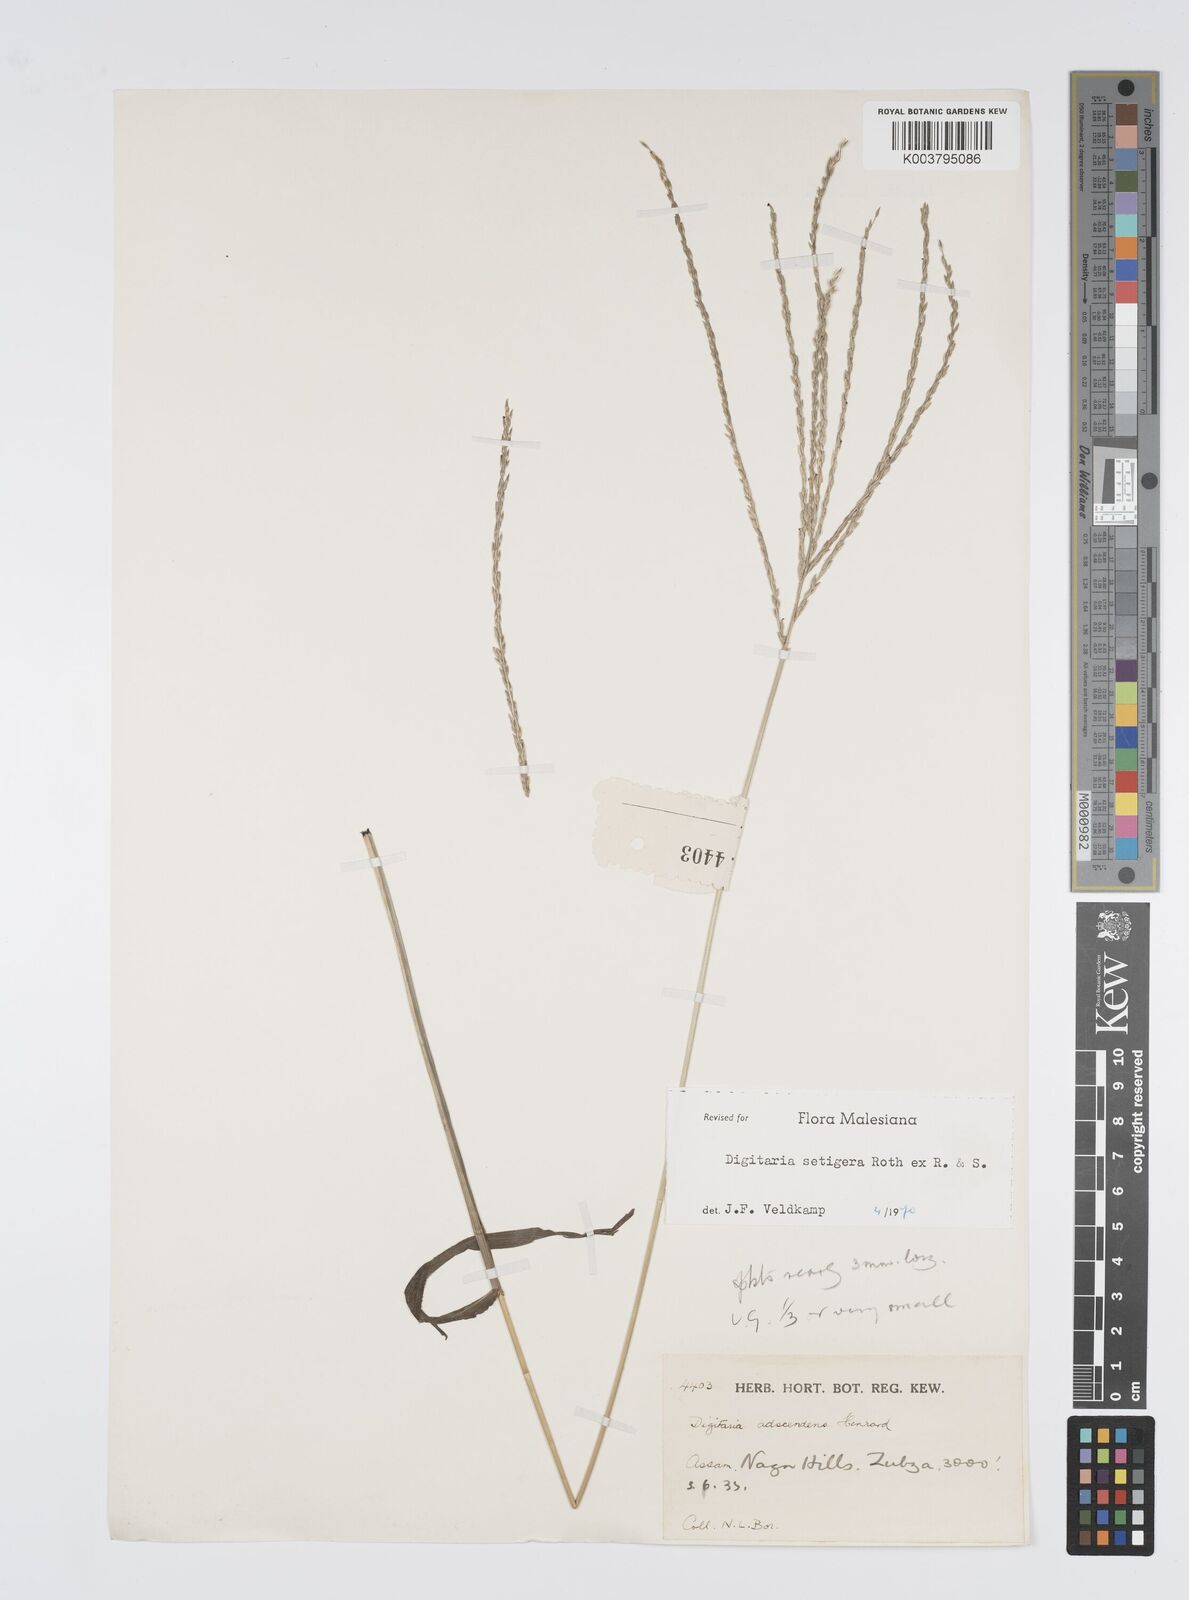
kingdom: Plantae
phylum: Tracheophyta
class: Liliopsida
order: Poales
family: Poaceae
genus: Digitaria
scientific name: Digitaria setigera
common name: East indian crabgrass
